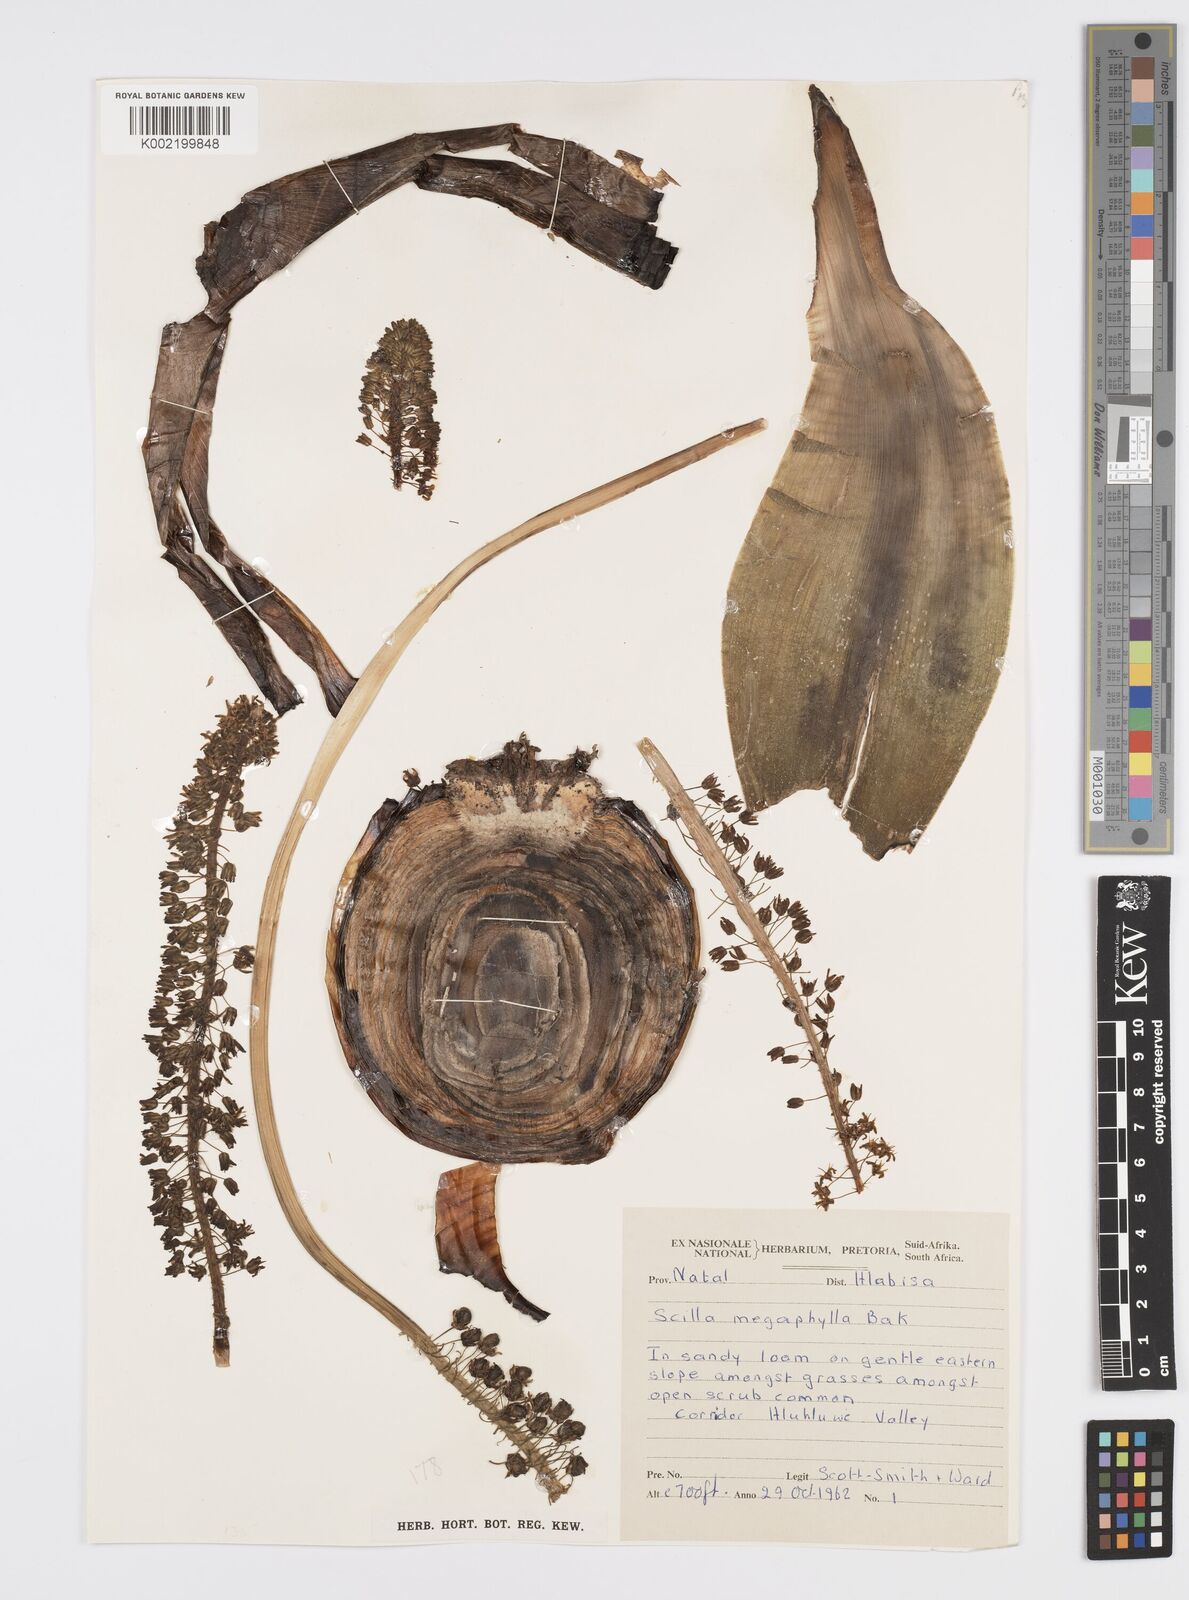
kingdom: Plantae
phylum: Tracheophyta
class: Liliopsida
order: Asparagales
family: Asparagaceae
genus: Ledebouria
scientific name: Ledebouria floribunda
